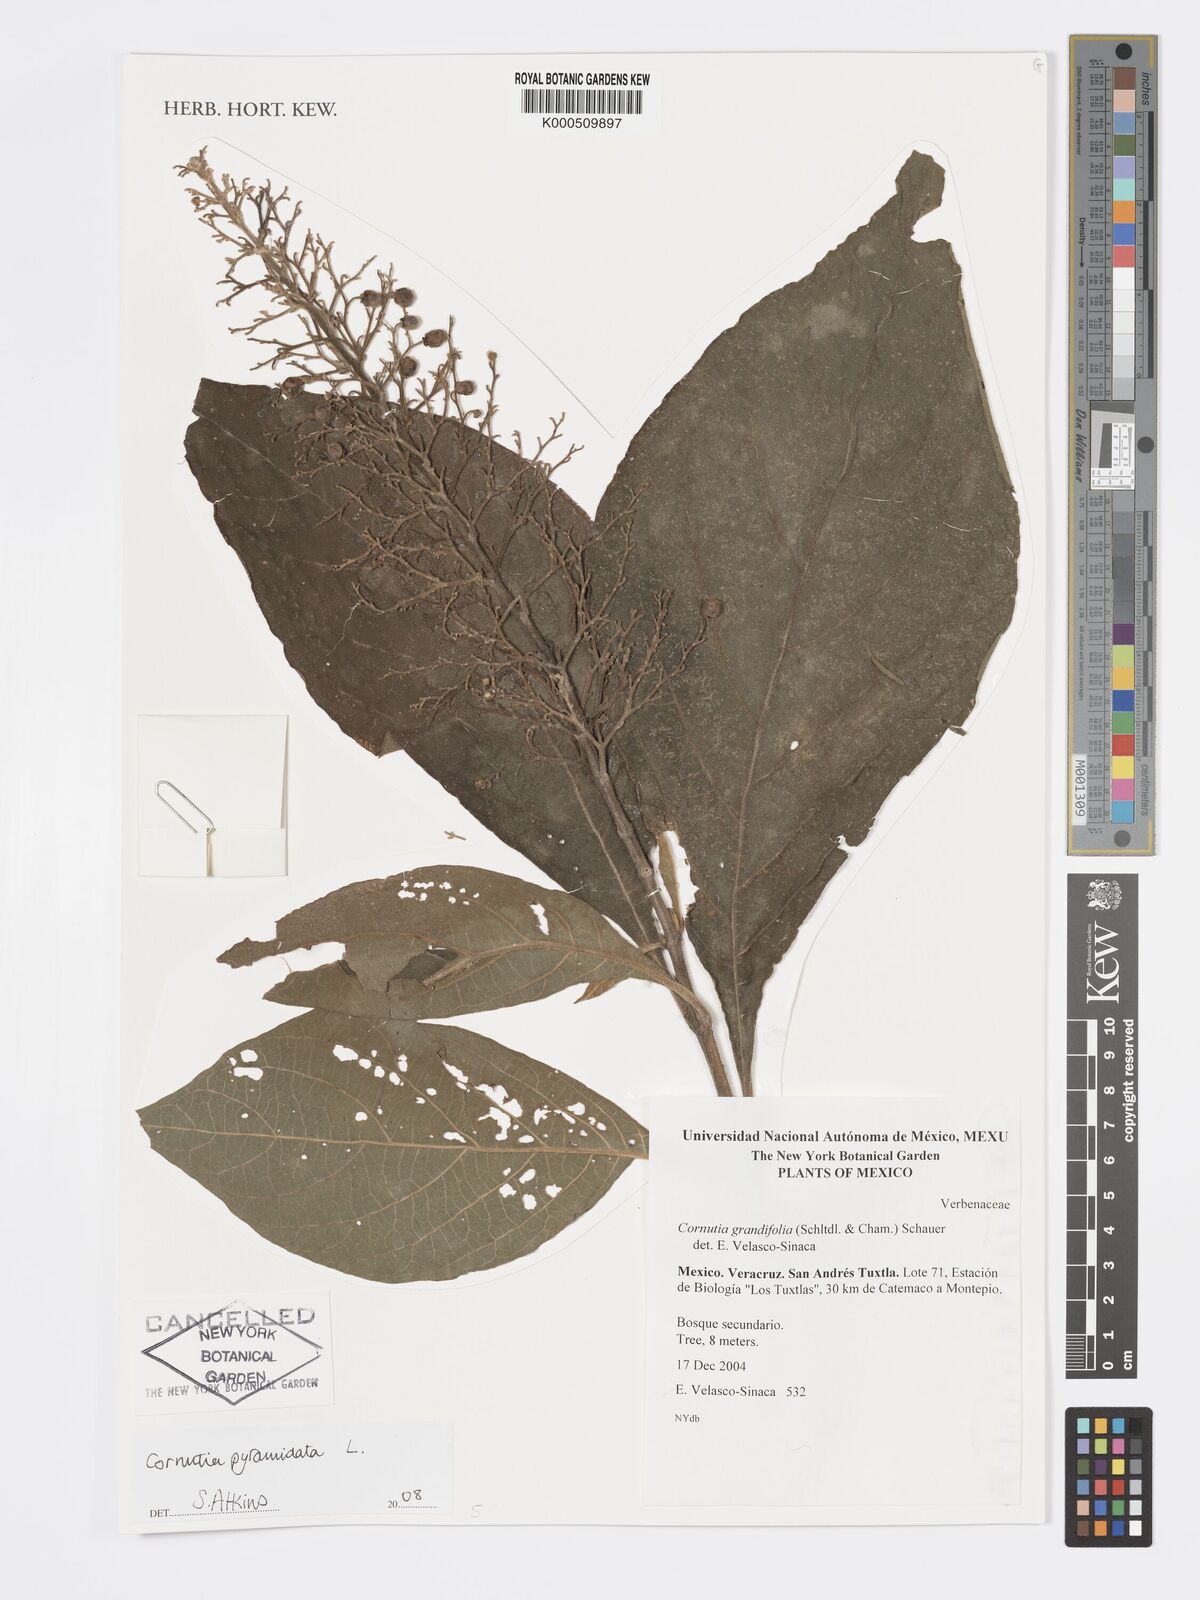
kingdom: Plantae
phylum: Tracheophyta
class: Magnoliopsida
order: Lamiales
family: Lamiaceae
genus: Cornutia
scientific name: Cornutia pyramidata
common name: Azulejo
